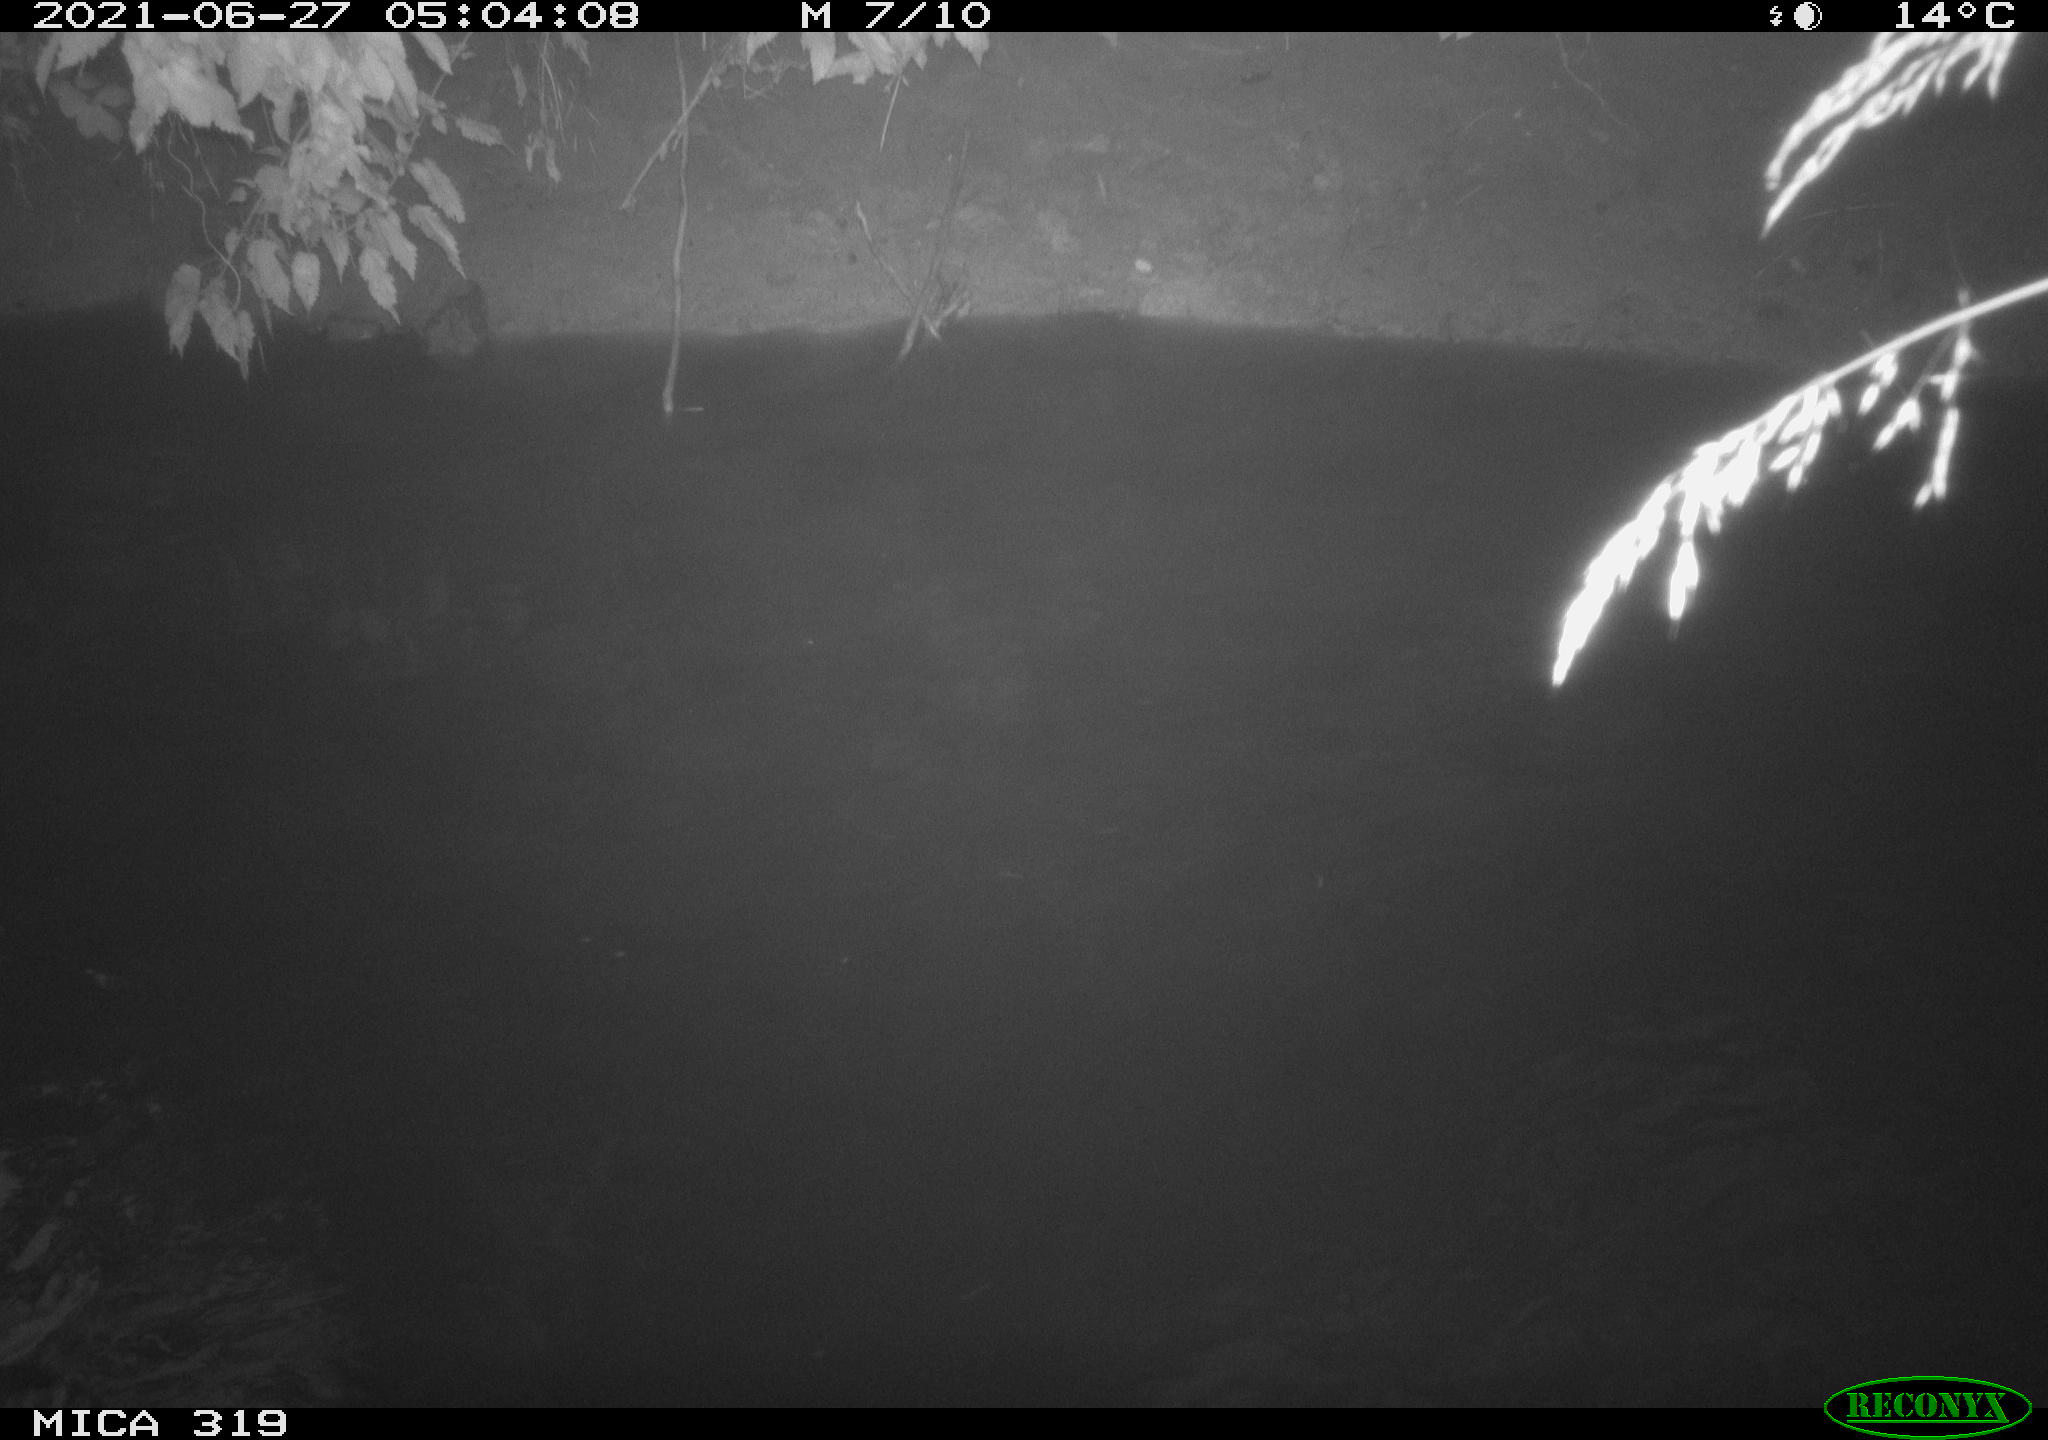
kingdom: Animalia
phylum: Chordata
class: Aves
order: Anseriformes
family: Anatidae
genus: Anas
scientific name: Anas platyrhynchos
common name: Mallard
